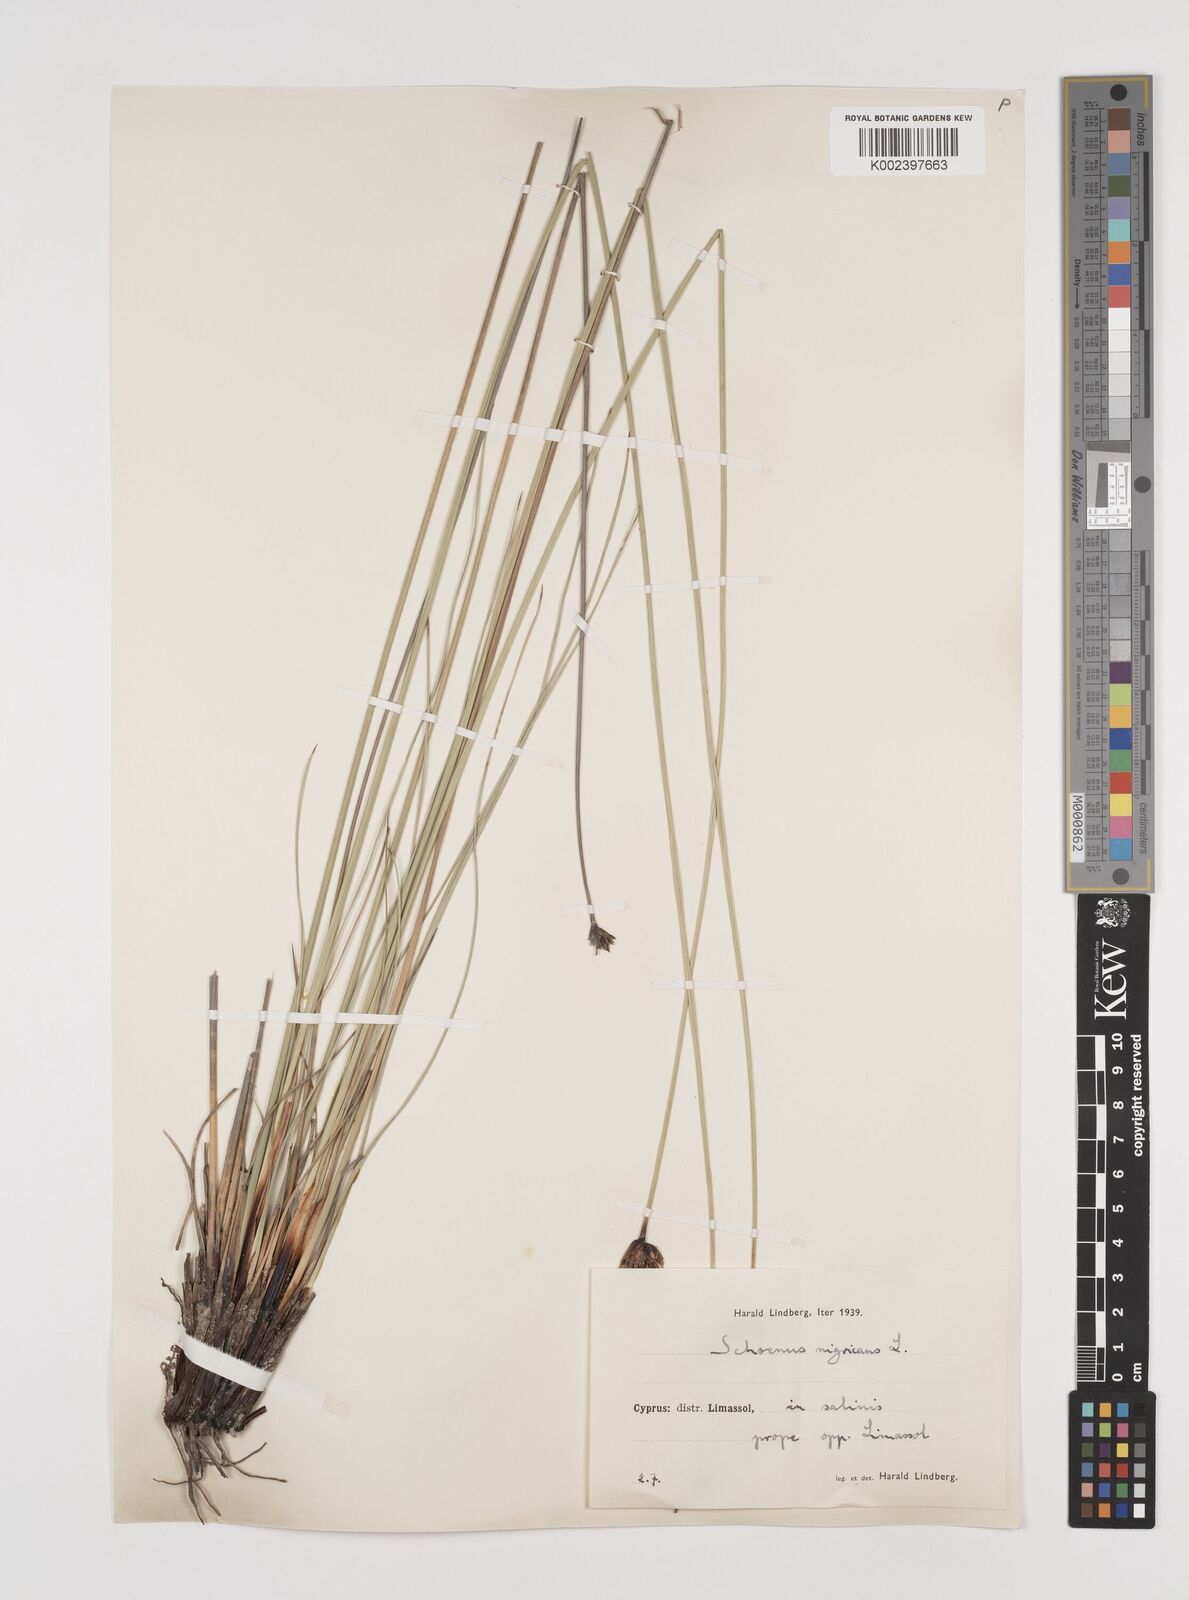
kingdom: Plantae
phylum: Tracheophyta
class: Liliopsida
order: Poales
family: Cyperaceae
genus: Schoenus
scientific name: Schoenus nigricans
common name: Black bog-rush
